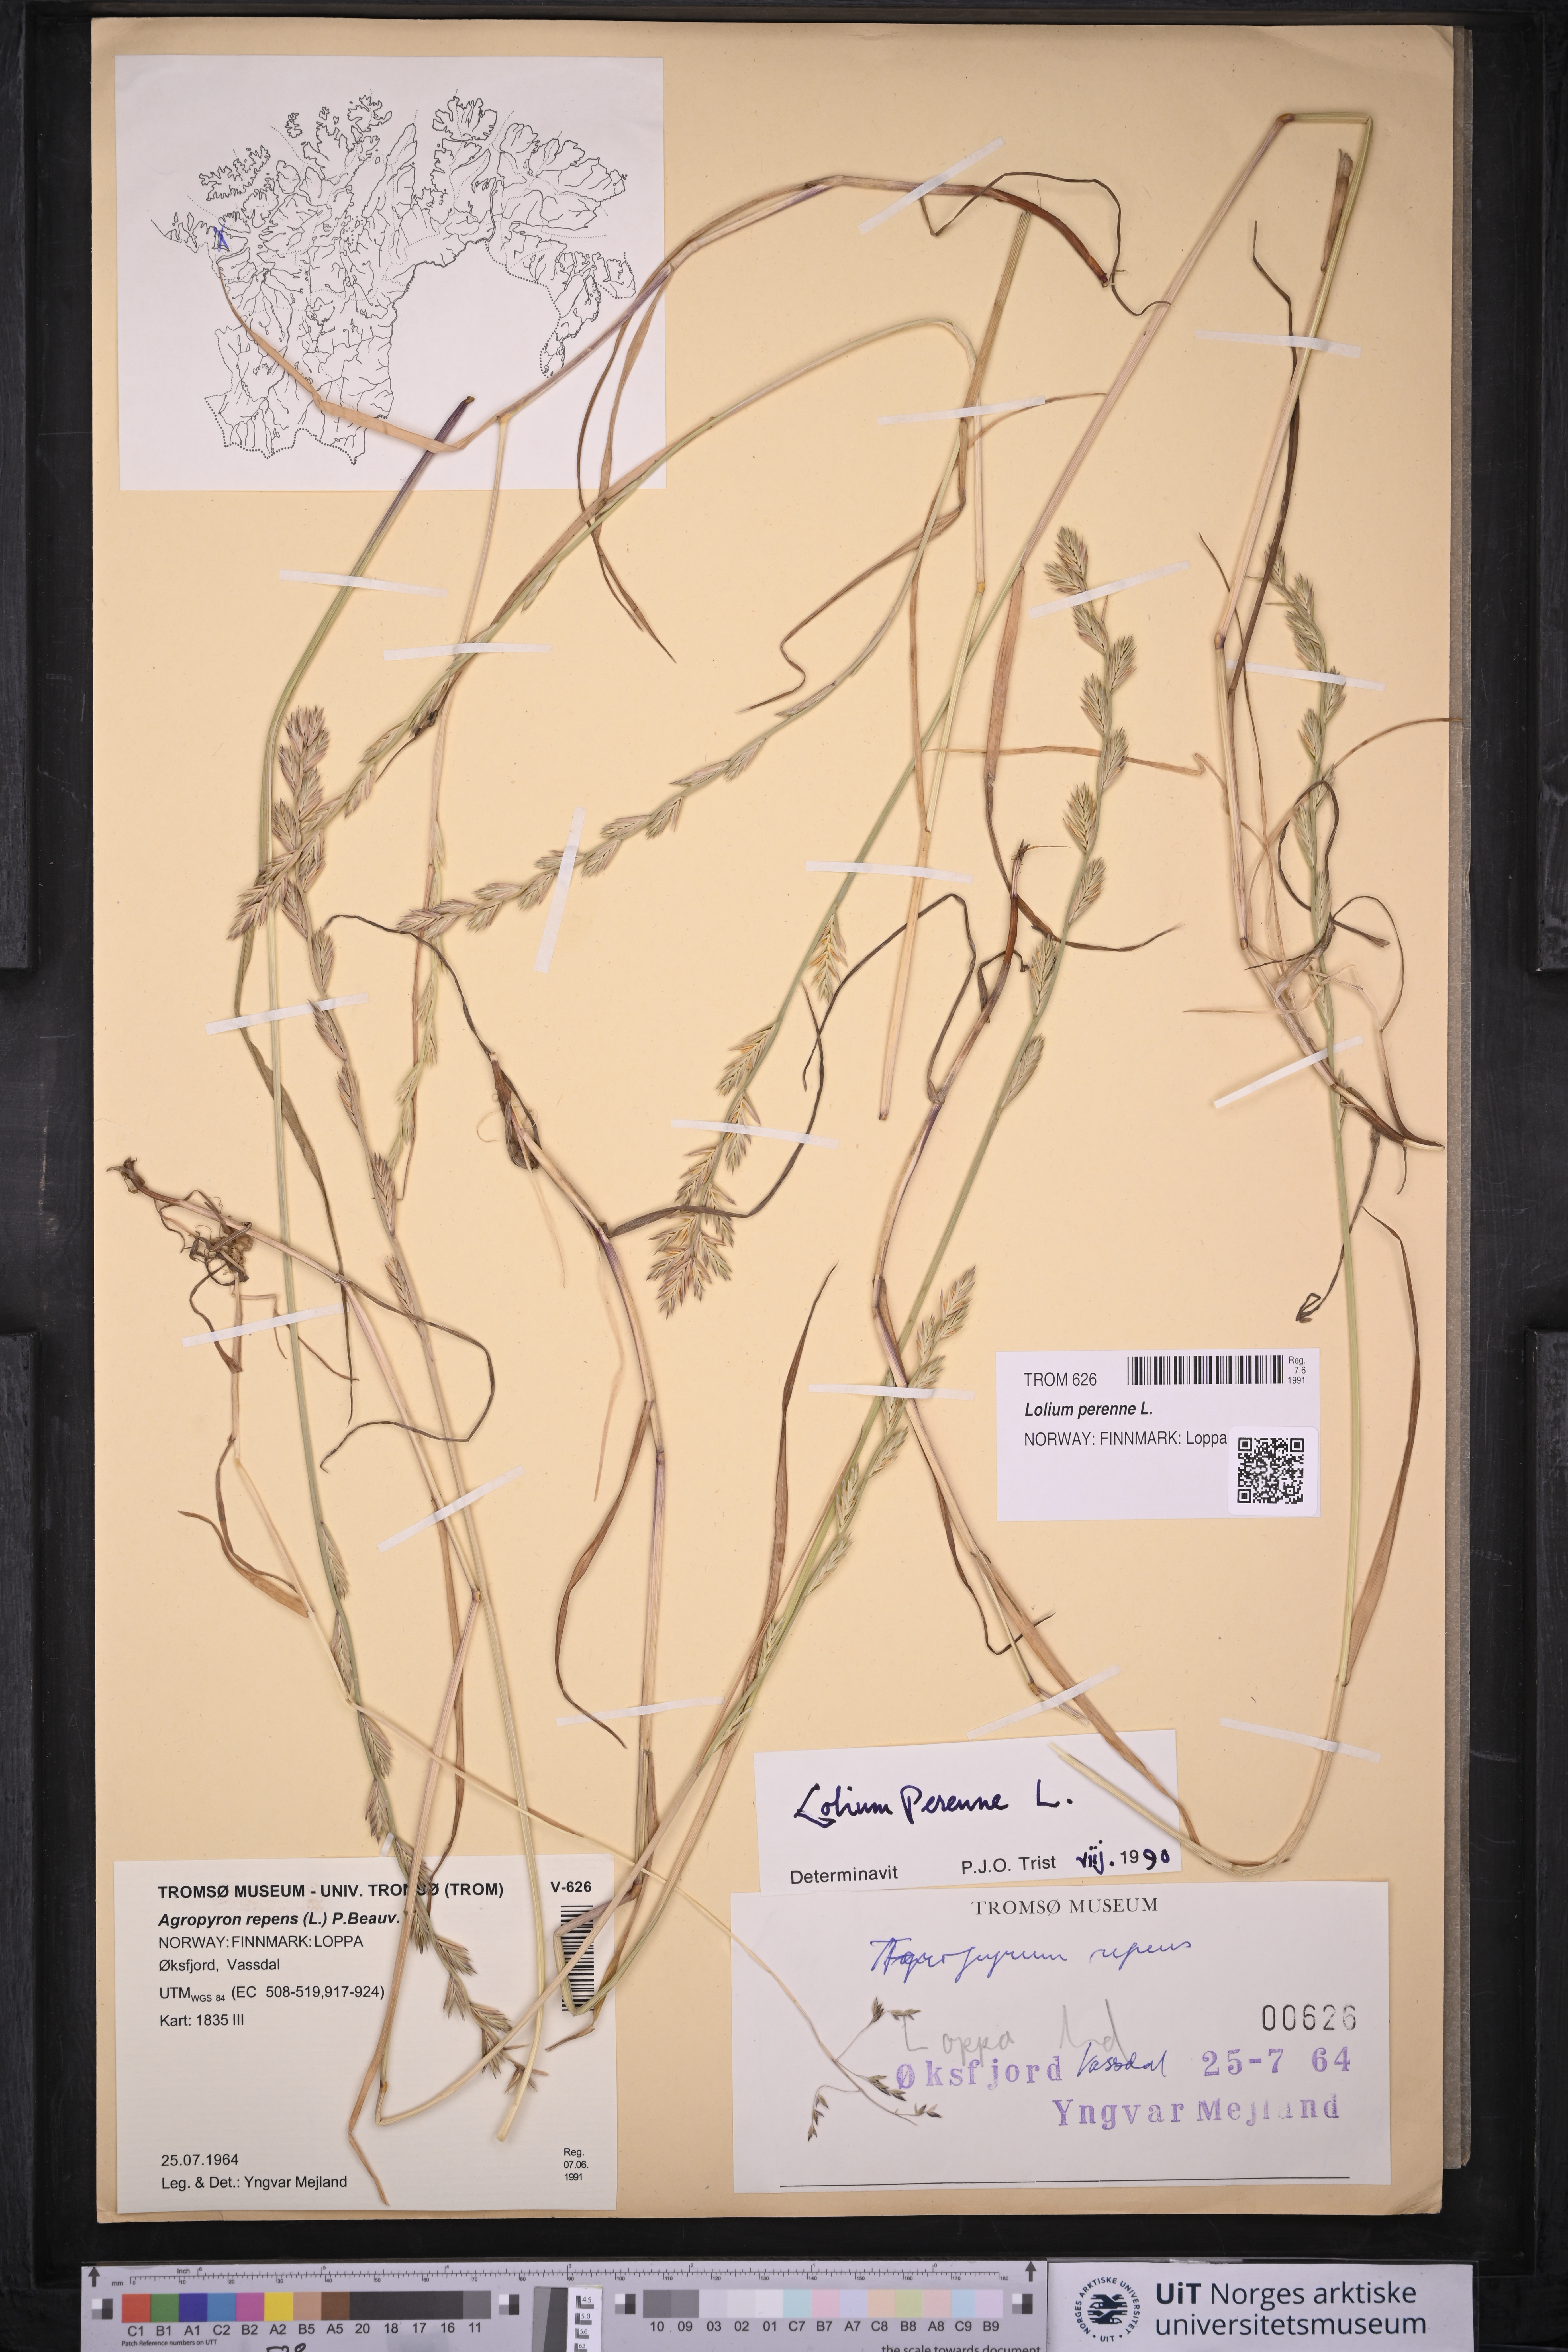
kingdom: Plantae
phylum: Tracheophyta
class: Liliopsida
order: Poales
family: Poaceae
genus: Lolium
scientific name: Lolium perenne
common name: Perennial ryegrass
